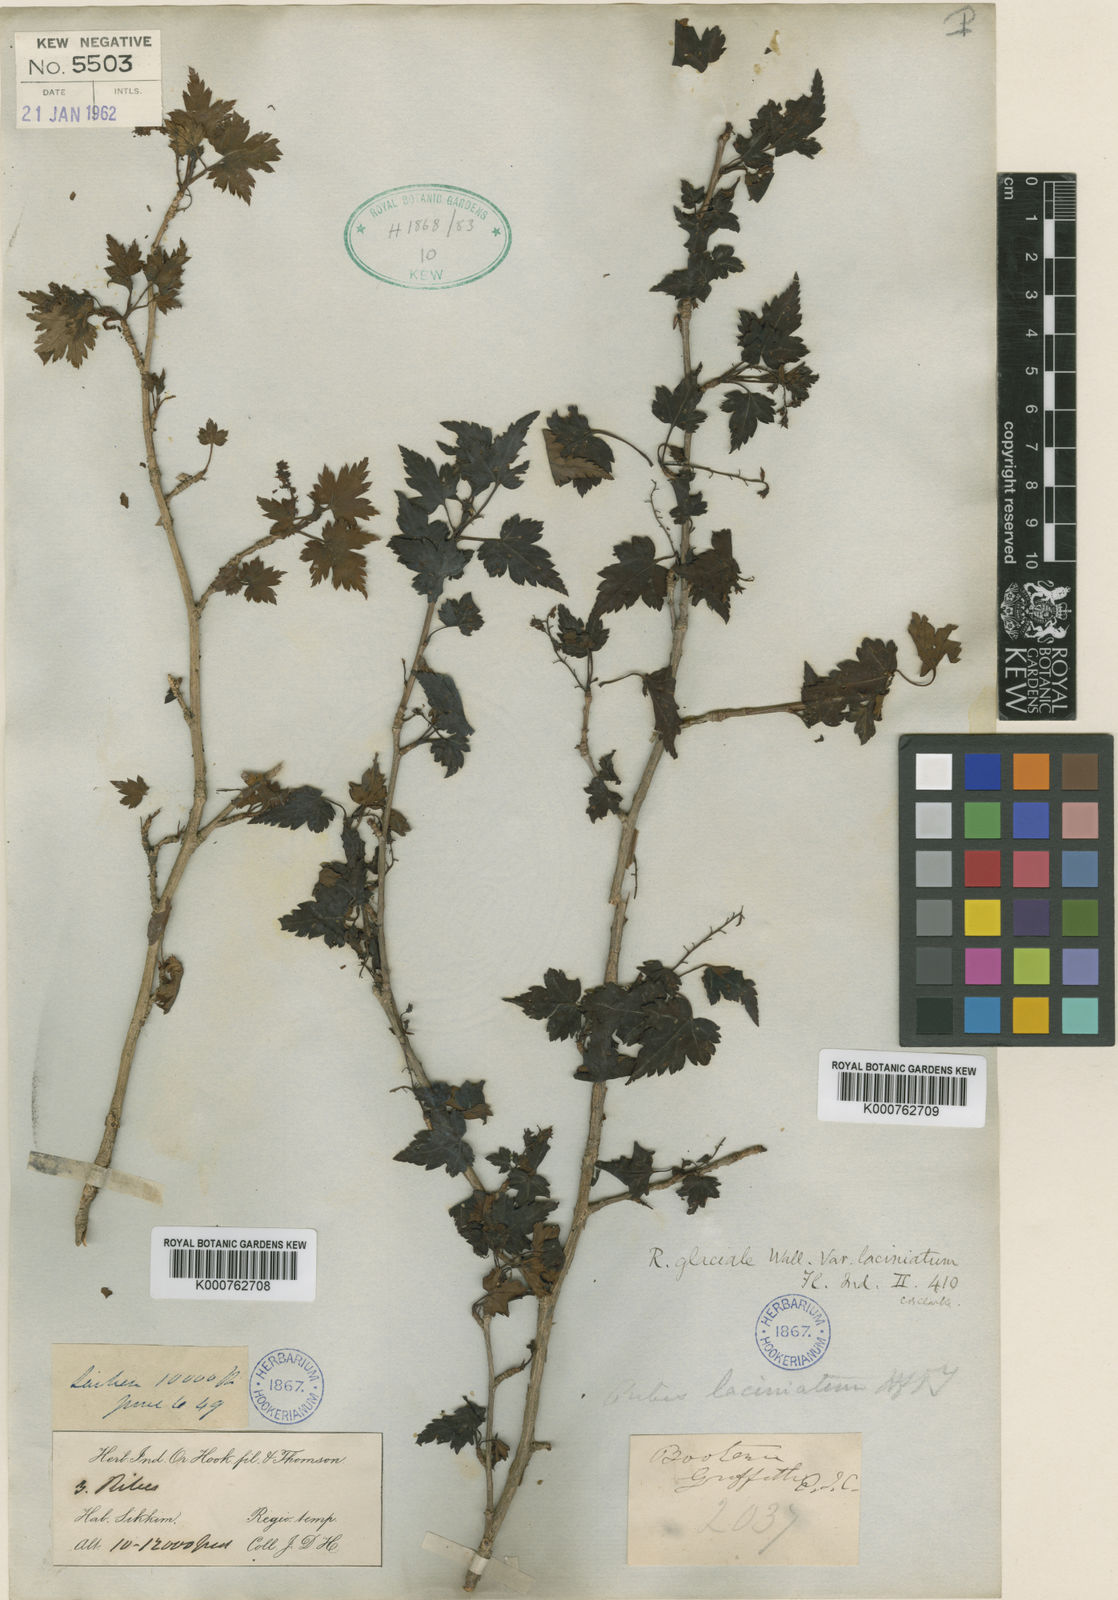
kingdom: Plantae
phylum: Tracheophyta
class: Magnoliopsida
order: Saxifragales
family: Grossulariaceae
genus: Ribes
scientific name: Ribes laciniatum
